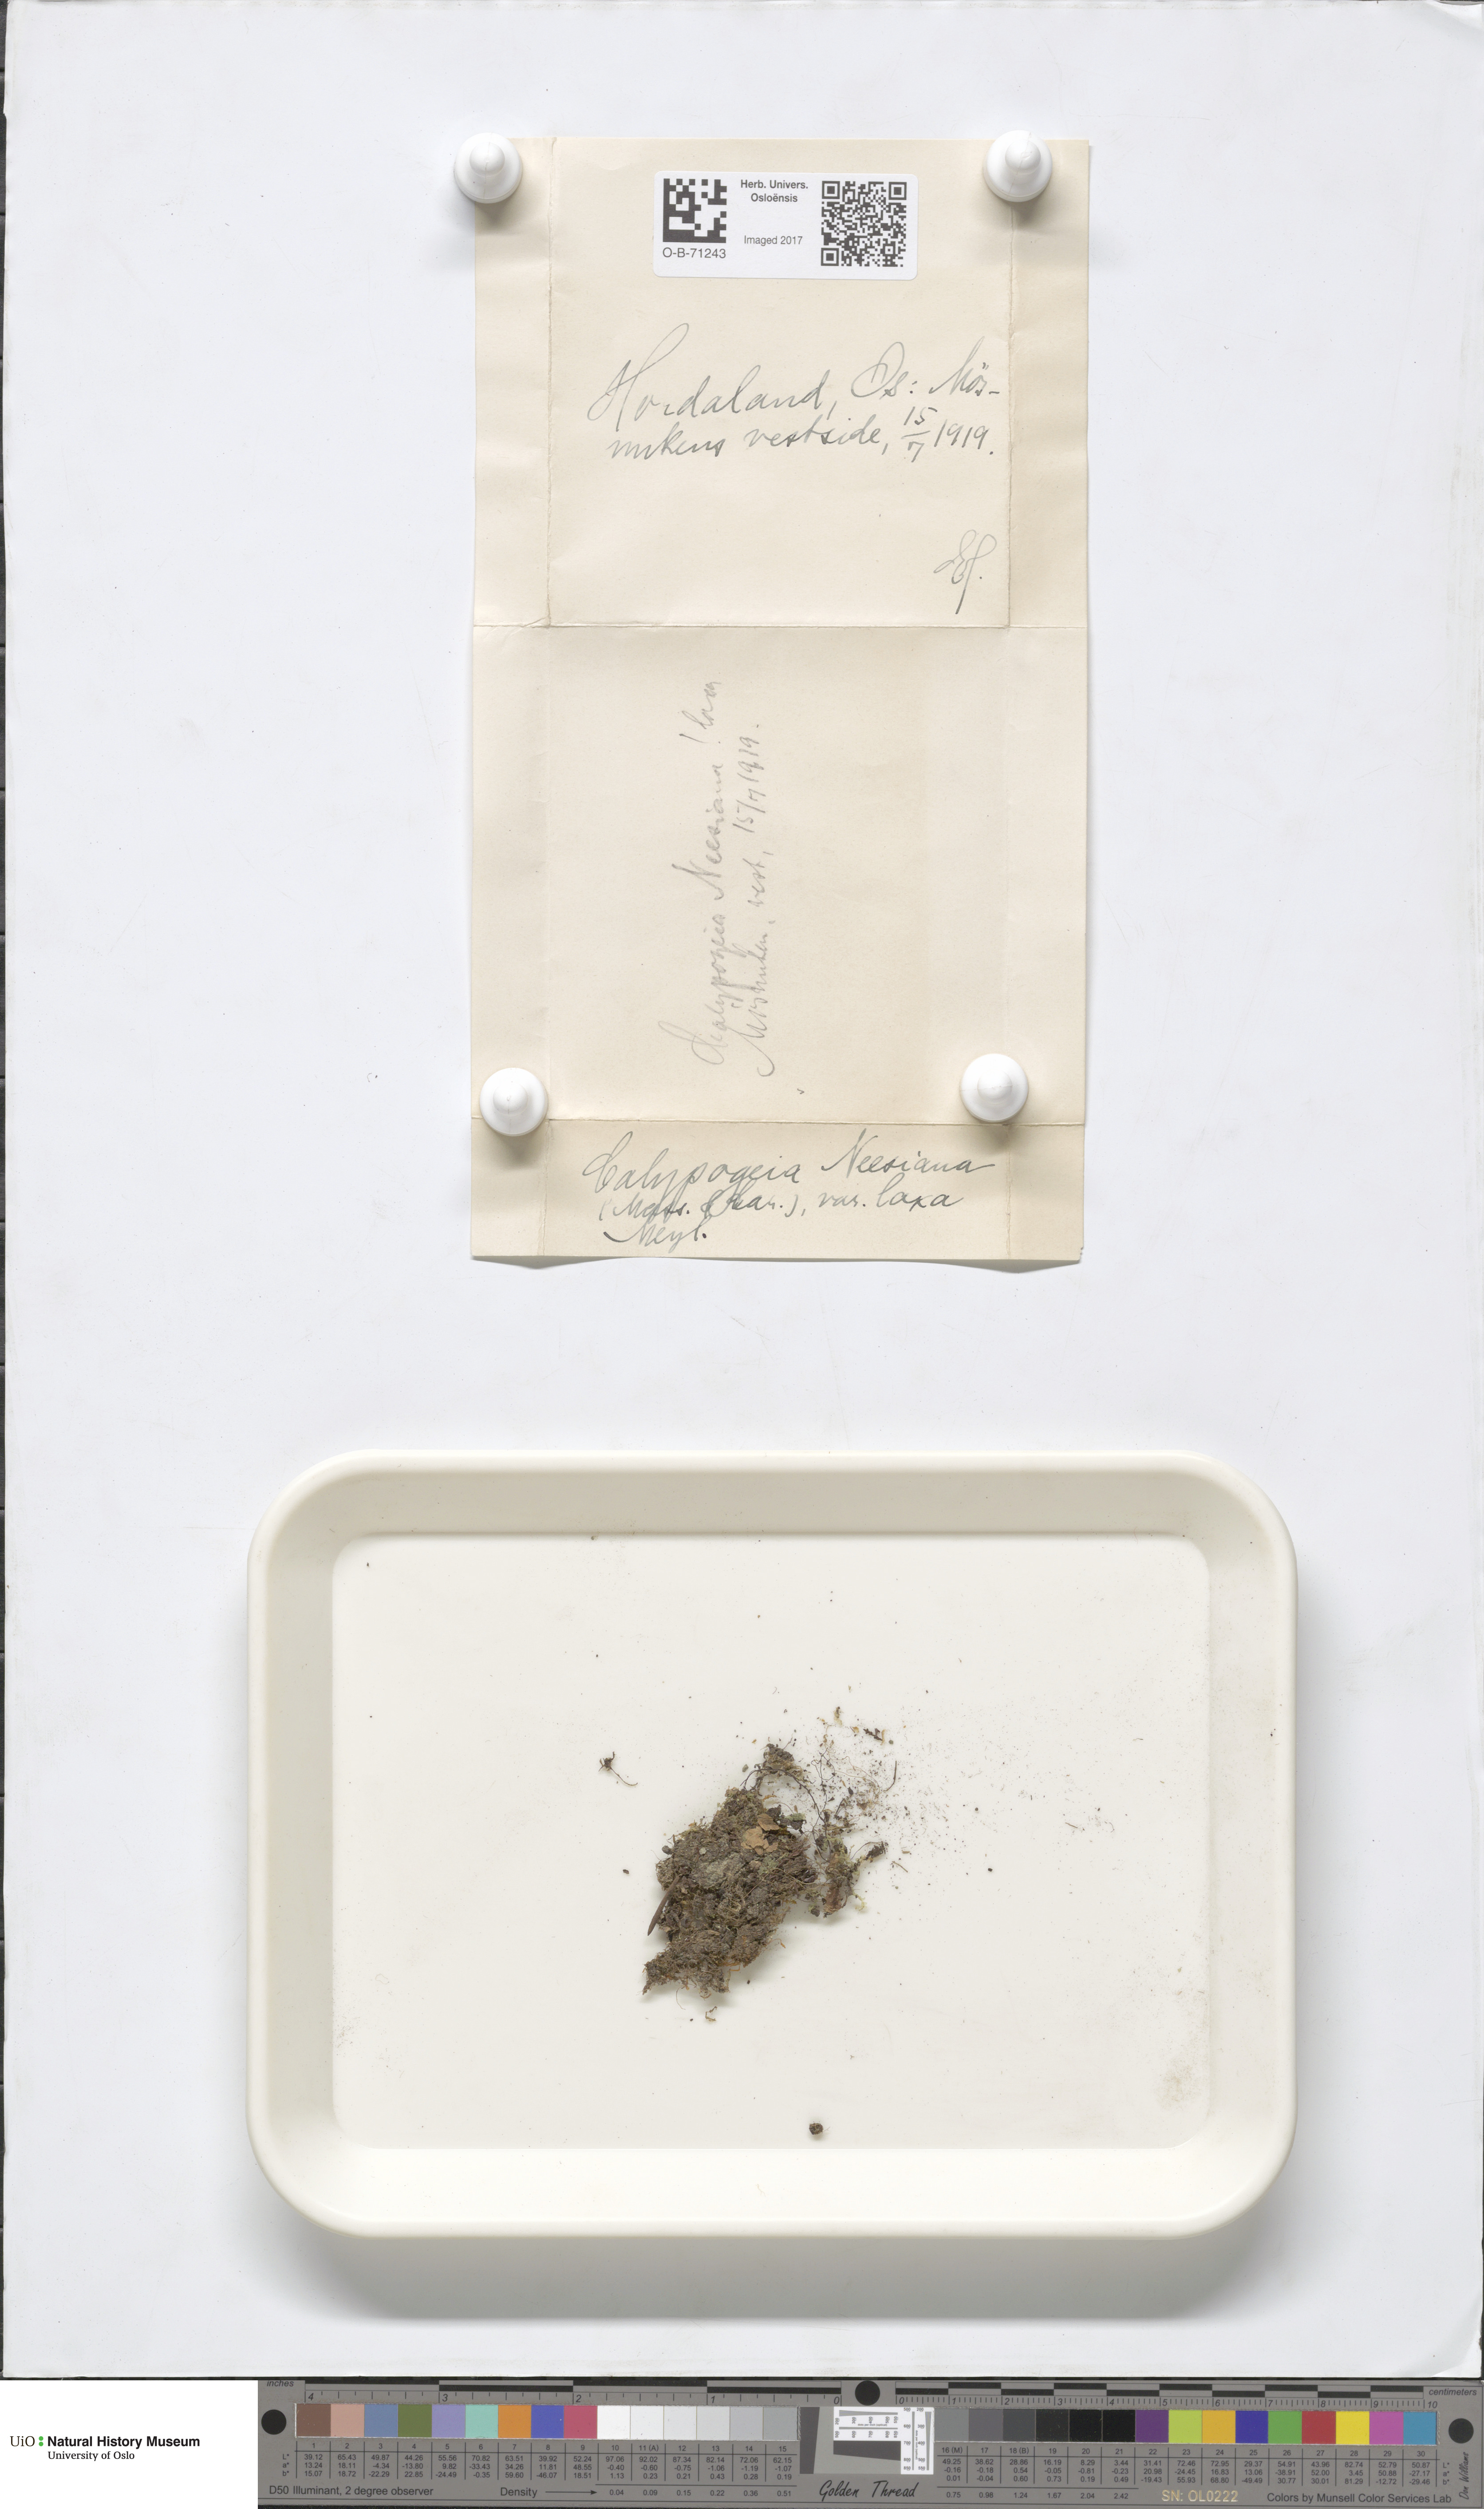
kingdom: Plantae
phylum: Marchantiophyta
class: Jungermanniopsida
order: Jungermanniales
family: Calypogeiaceae
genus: Calypogeia
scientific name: Calypogeia neesiana
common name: Nees  pouchwort
